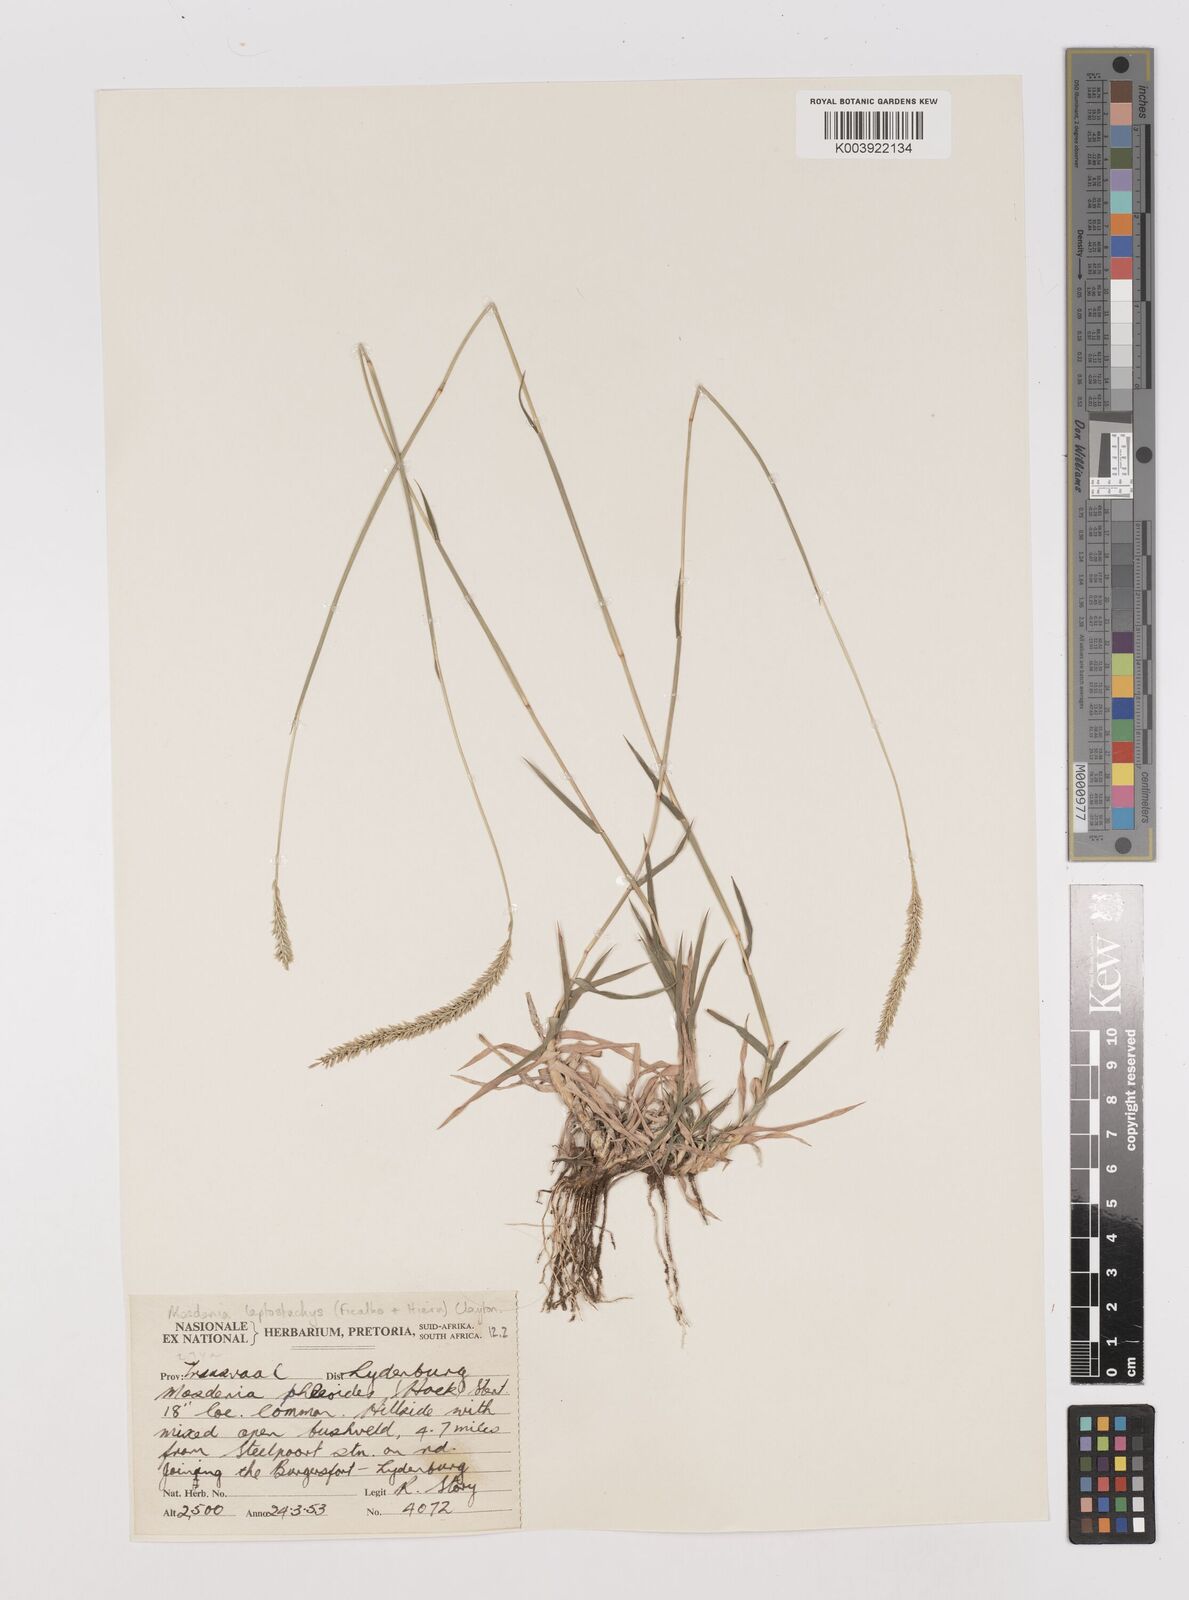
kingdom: Plantae
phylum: Tracheophyta
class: Liliopsida
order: Poales
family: Poaceae
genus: Mosdenia
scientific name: Mosdenia leptostachys
